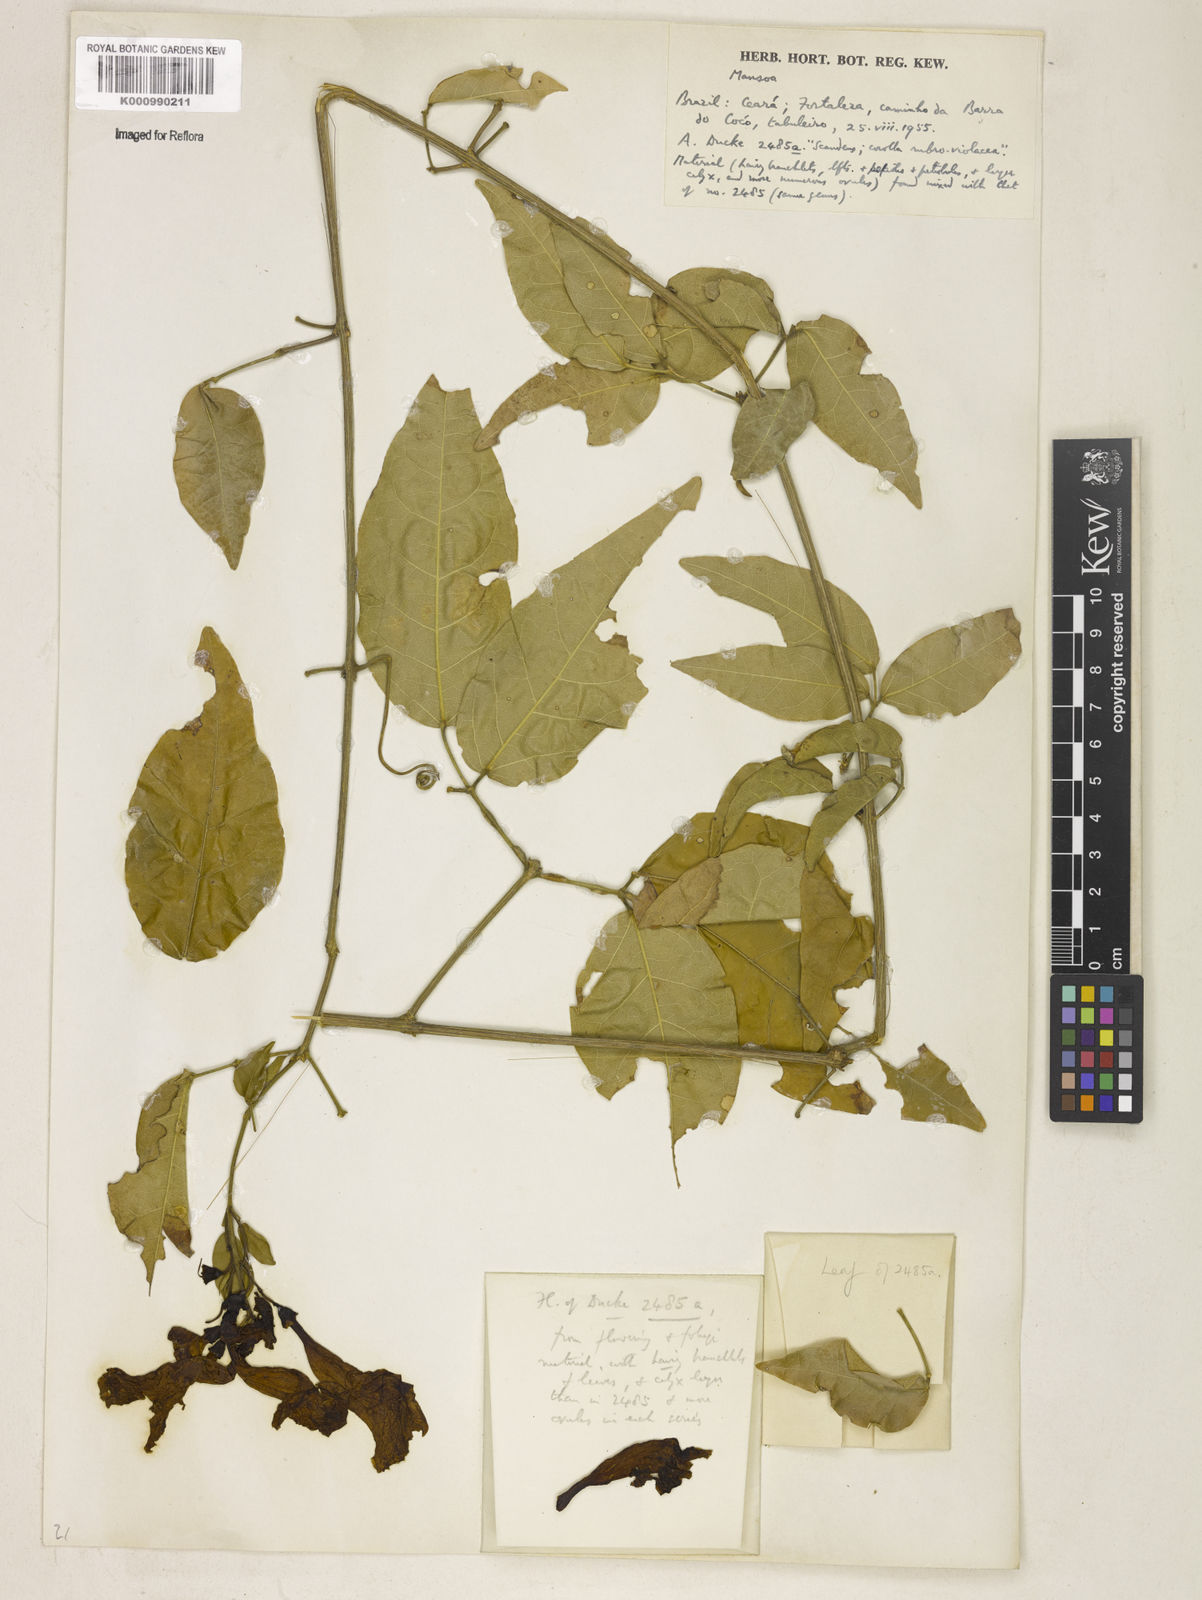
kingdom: Plantae
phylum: Tracheophyta
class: Magnoliopsida
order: Lamiales
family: Bignoniaceae
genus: Mansoa
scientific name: Mansoa
